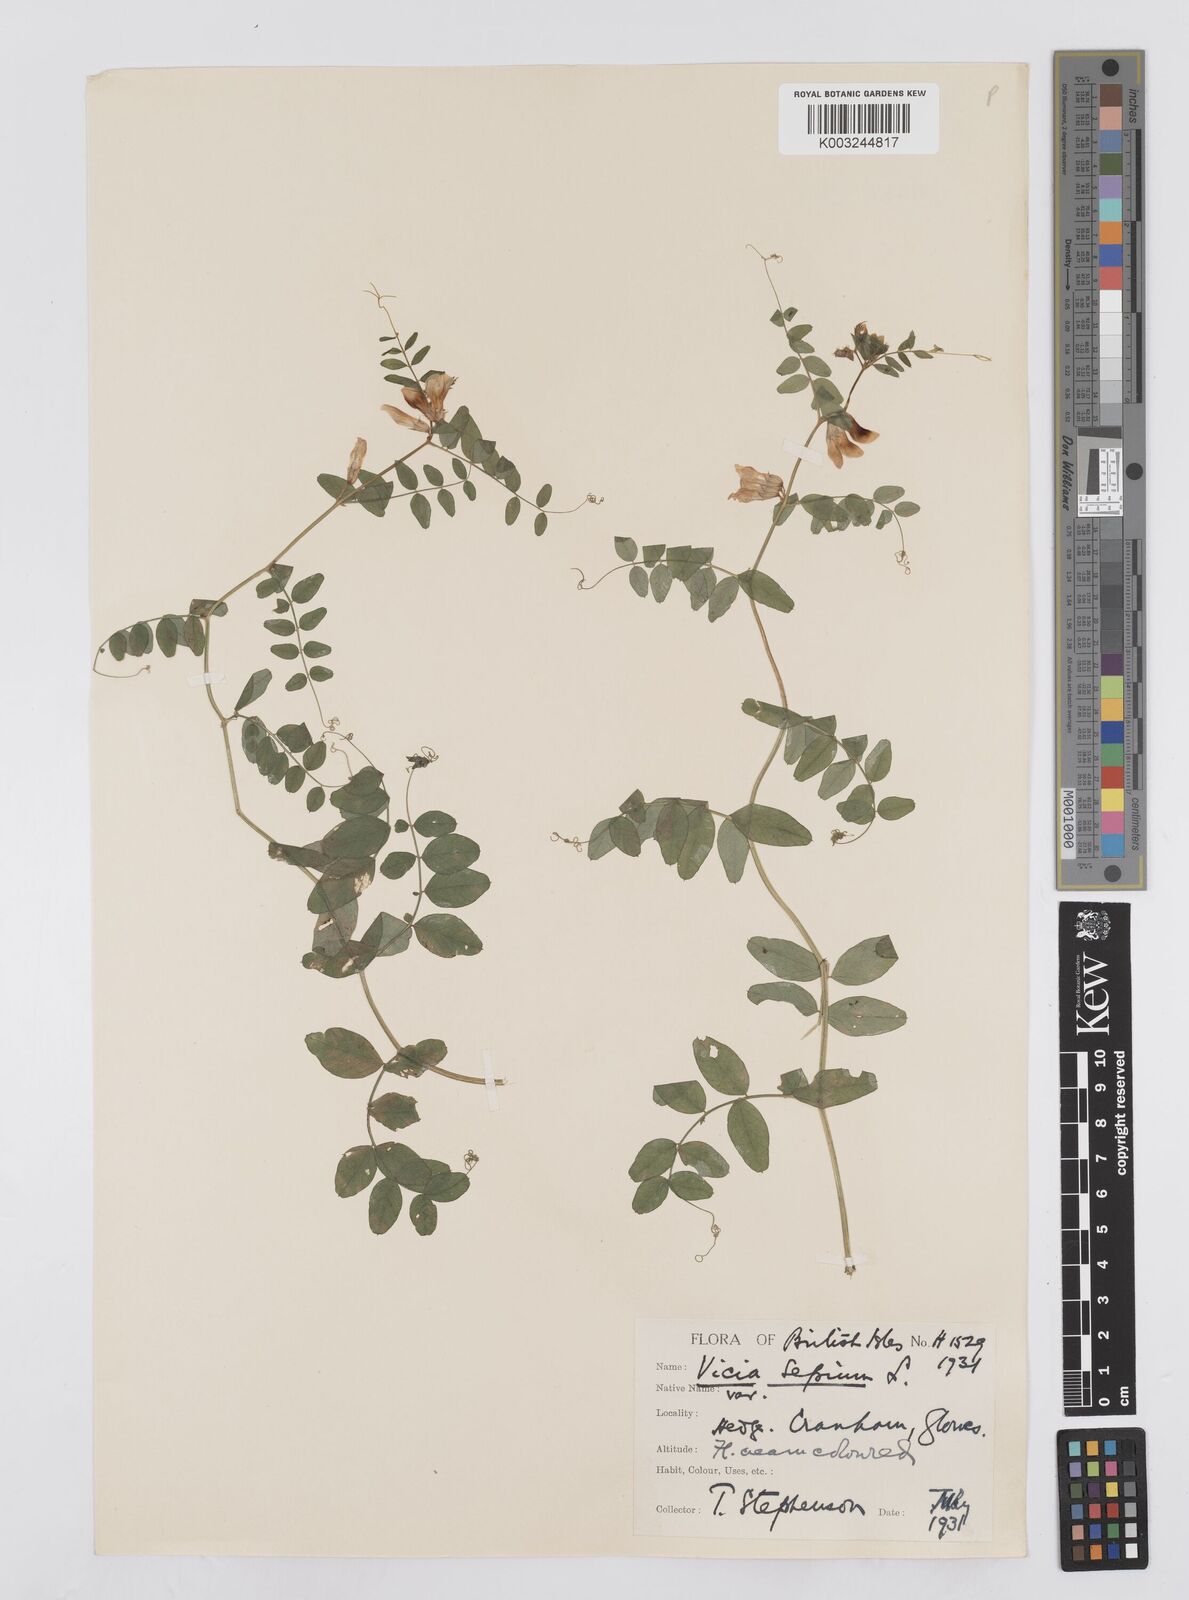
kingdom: Plantae
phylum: Tracheophyta
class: Magnoliopsida
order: Fabales
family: Fabaceae
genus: Vicia
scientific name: Vicia sepium
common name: Bush vetch
